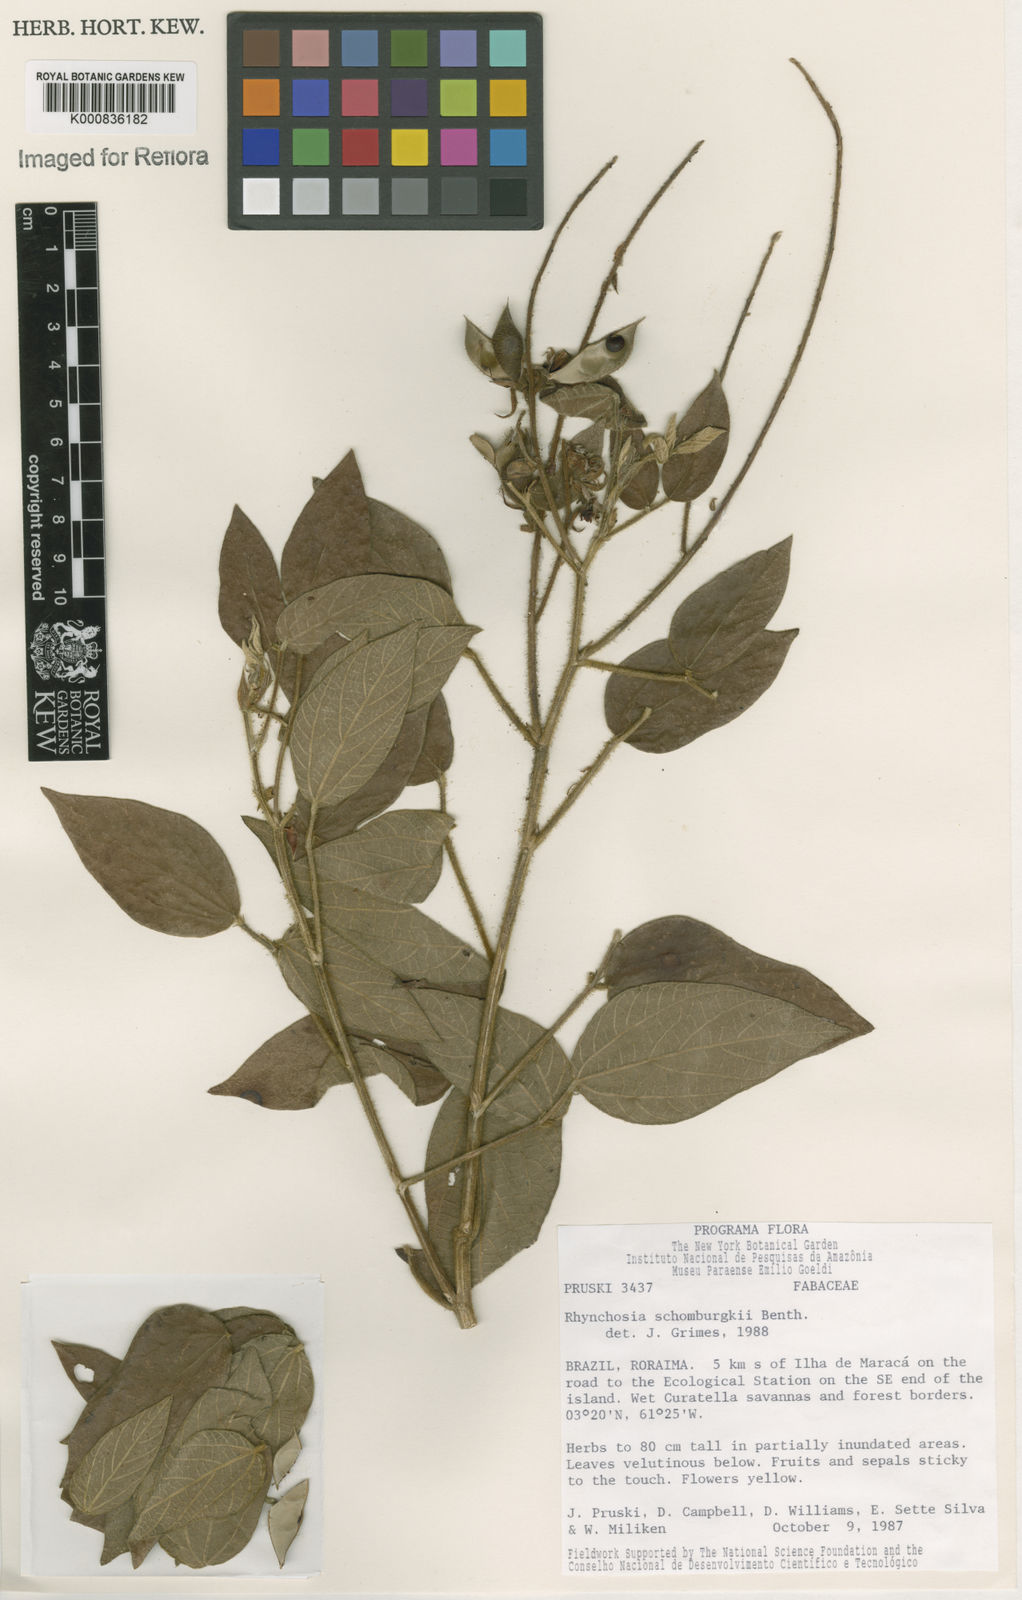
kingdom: Plantae
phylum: Tracheophyta
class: Magnoliopsida
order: Fabales
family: Fabaceae
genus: Rhynchosia
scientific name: Rhynchosia schomburgkii
